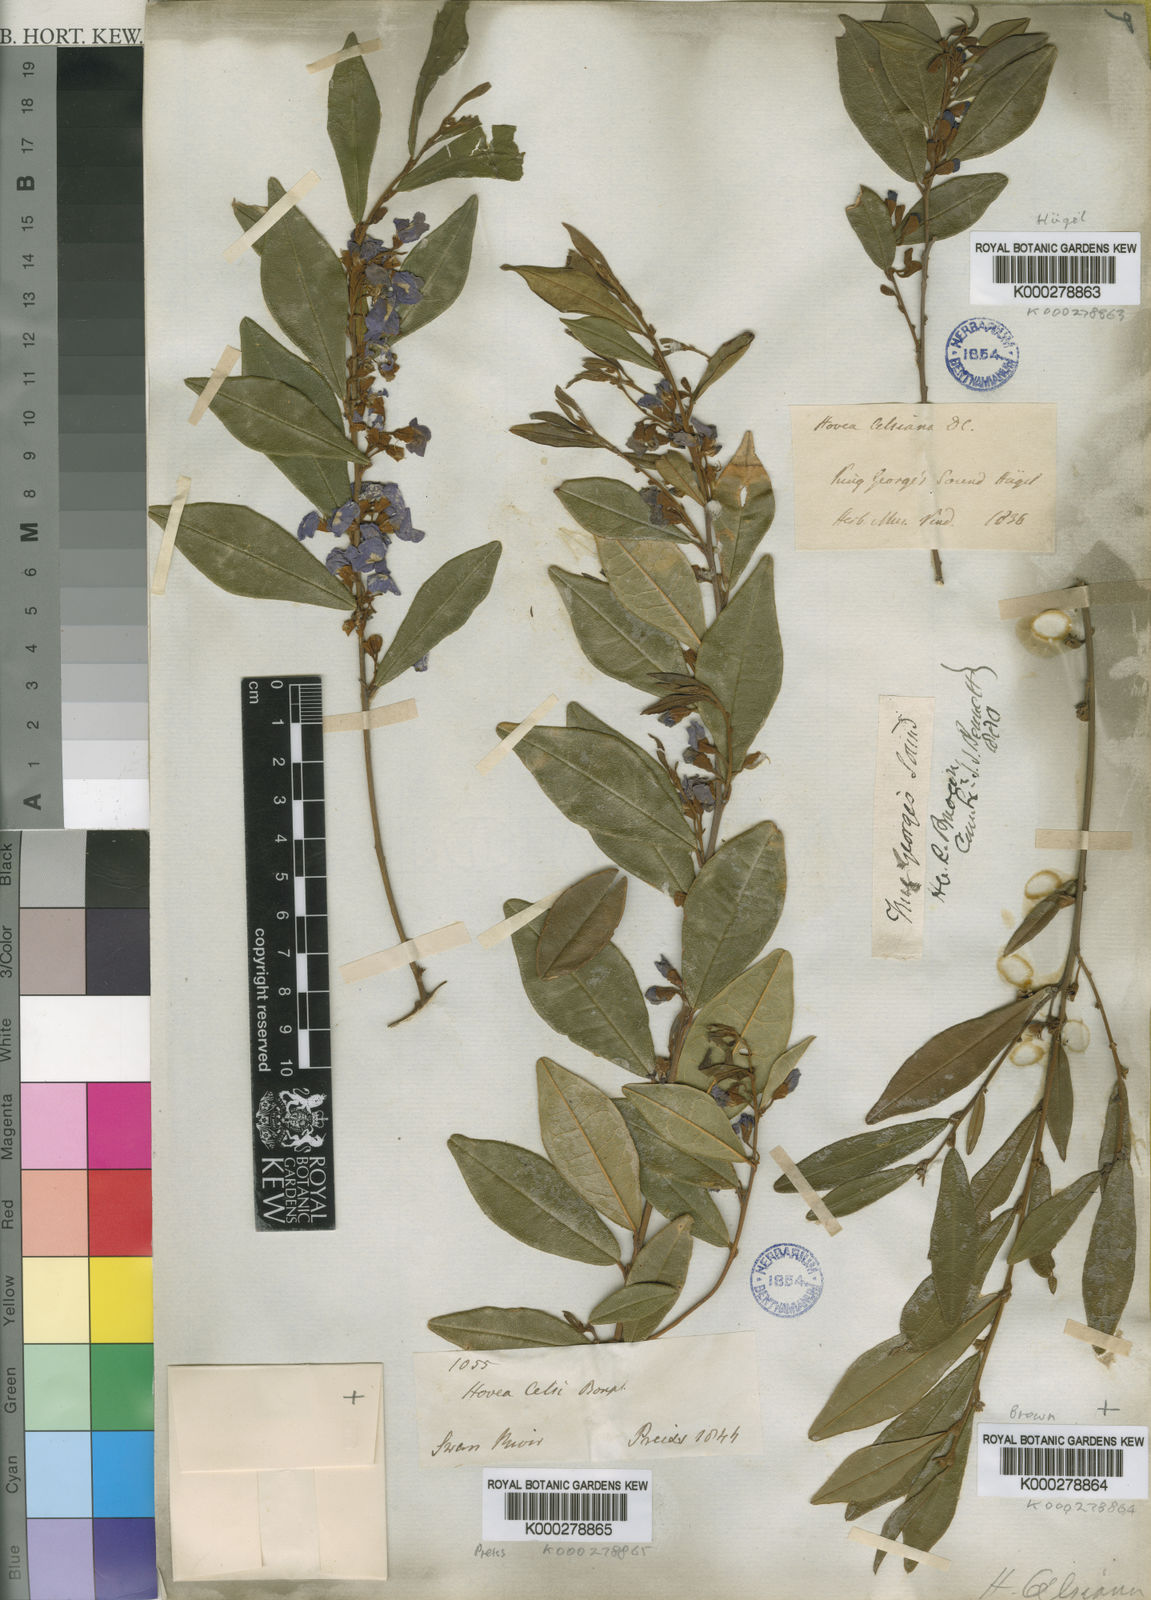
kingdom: Plantae
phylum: Tracheophyta
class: Magnoliopsida
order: Fabales
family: Fabaceae
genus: Hovea
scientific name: Hovea elliptica
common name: Tree hovea
